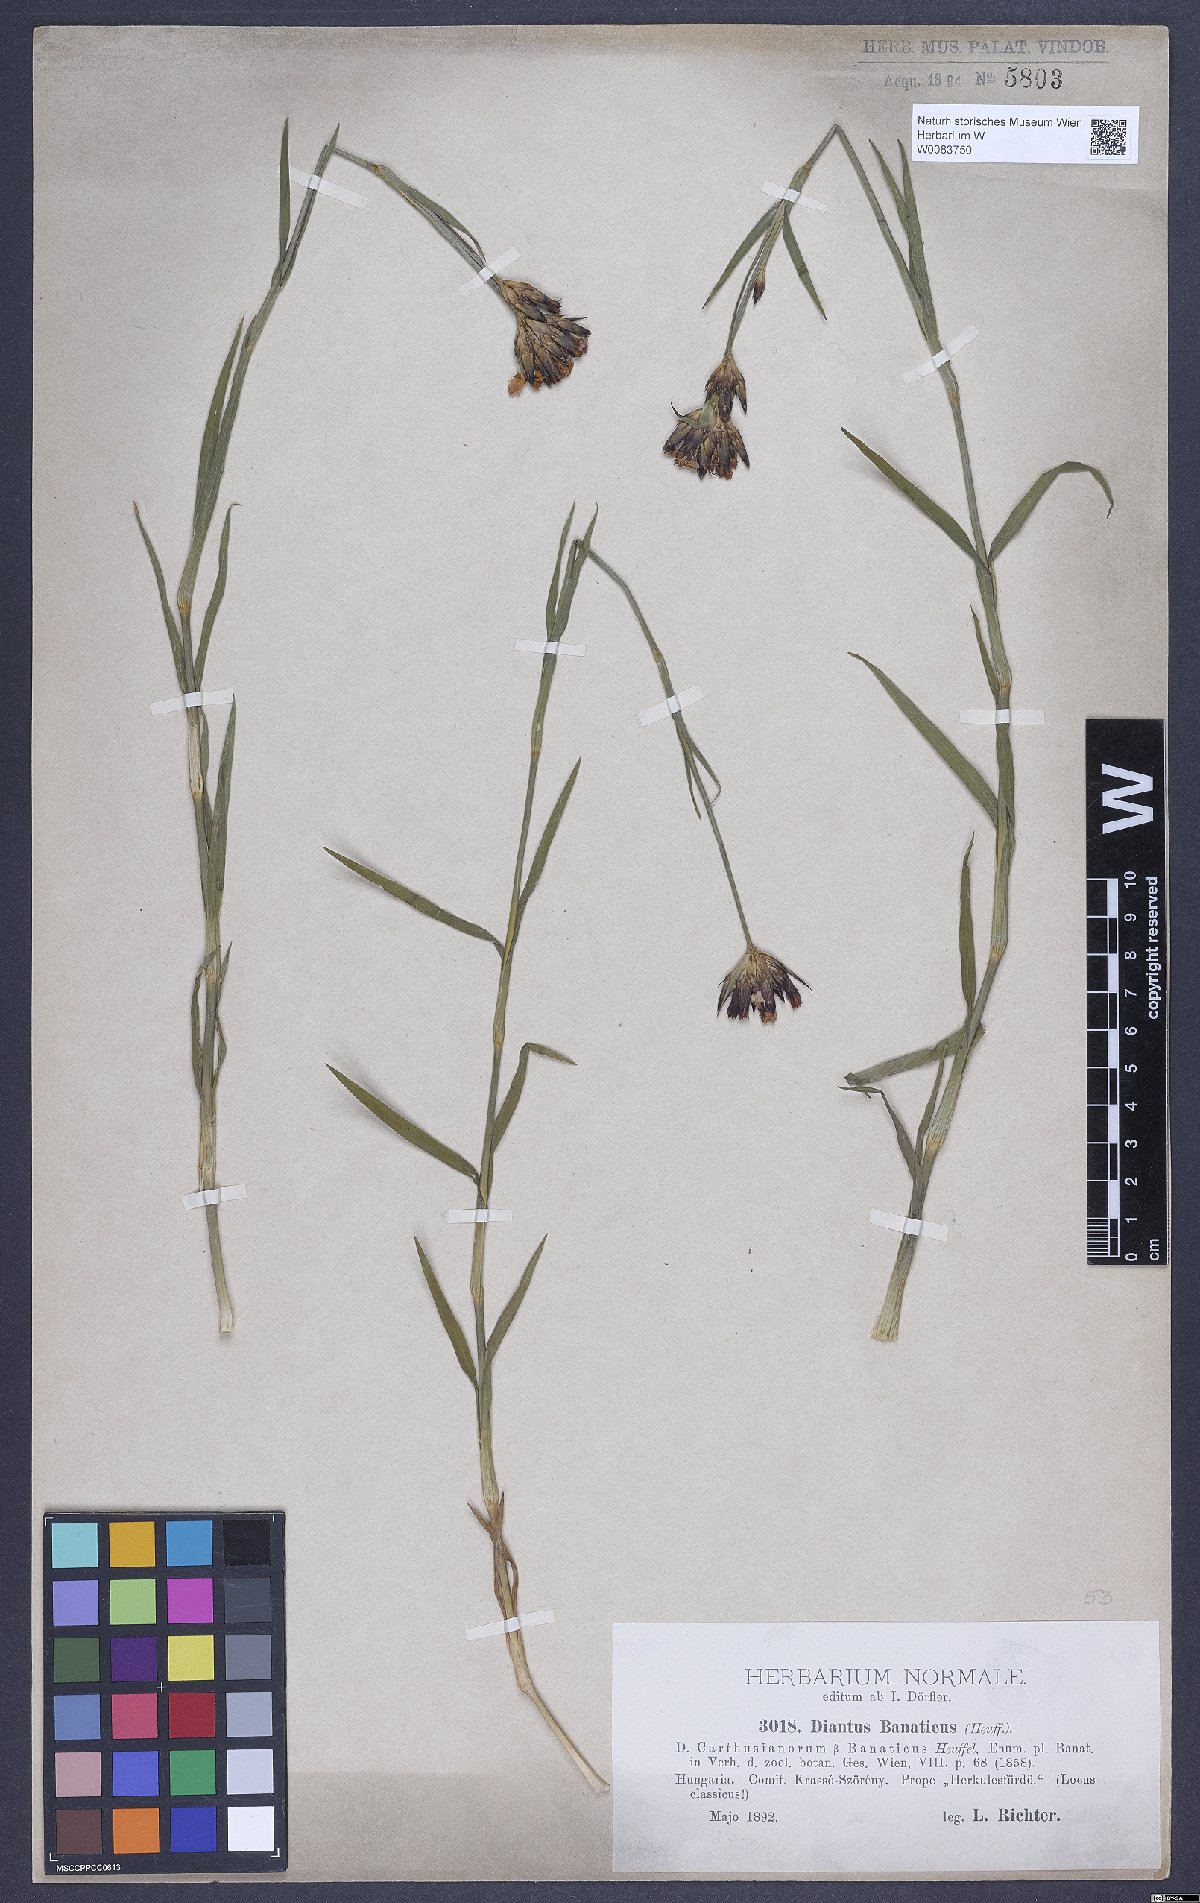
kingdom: Plantae
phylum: Tracheophyta
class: Magnoliopsida
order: Caryophyllales
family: Caryophyllaceae
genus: Dianthus
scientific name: Dianthus giganteus
